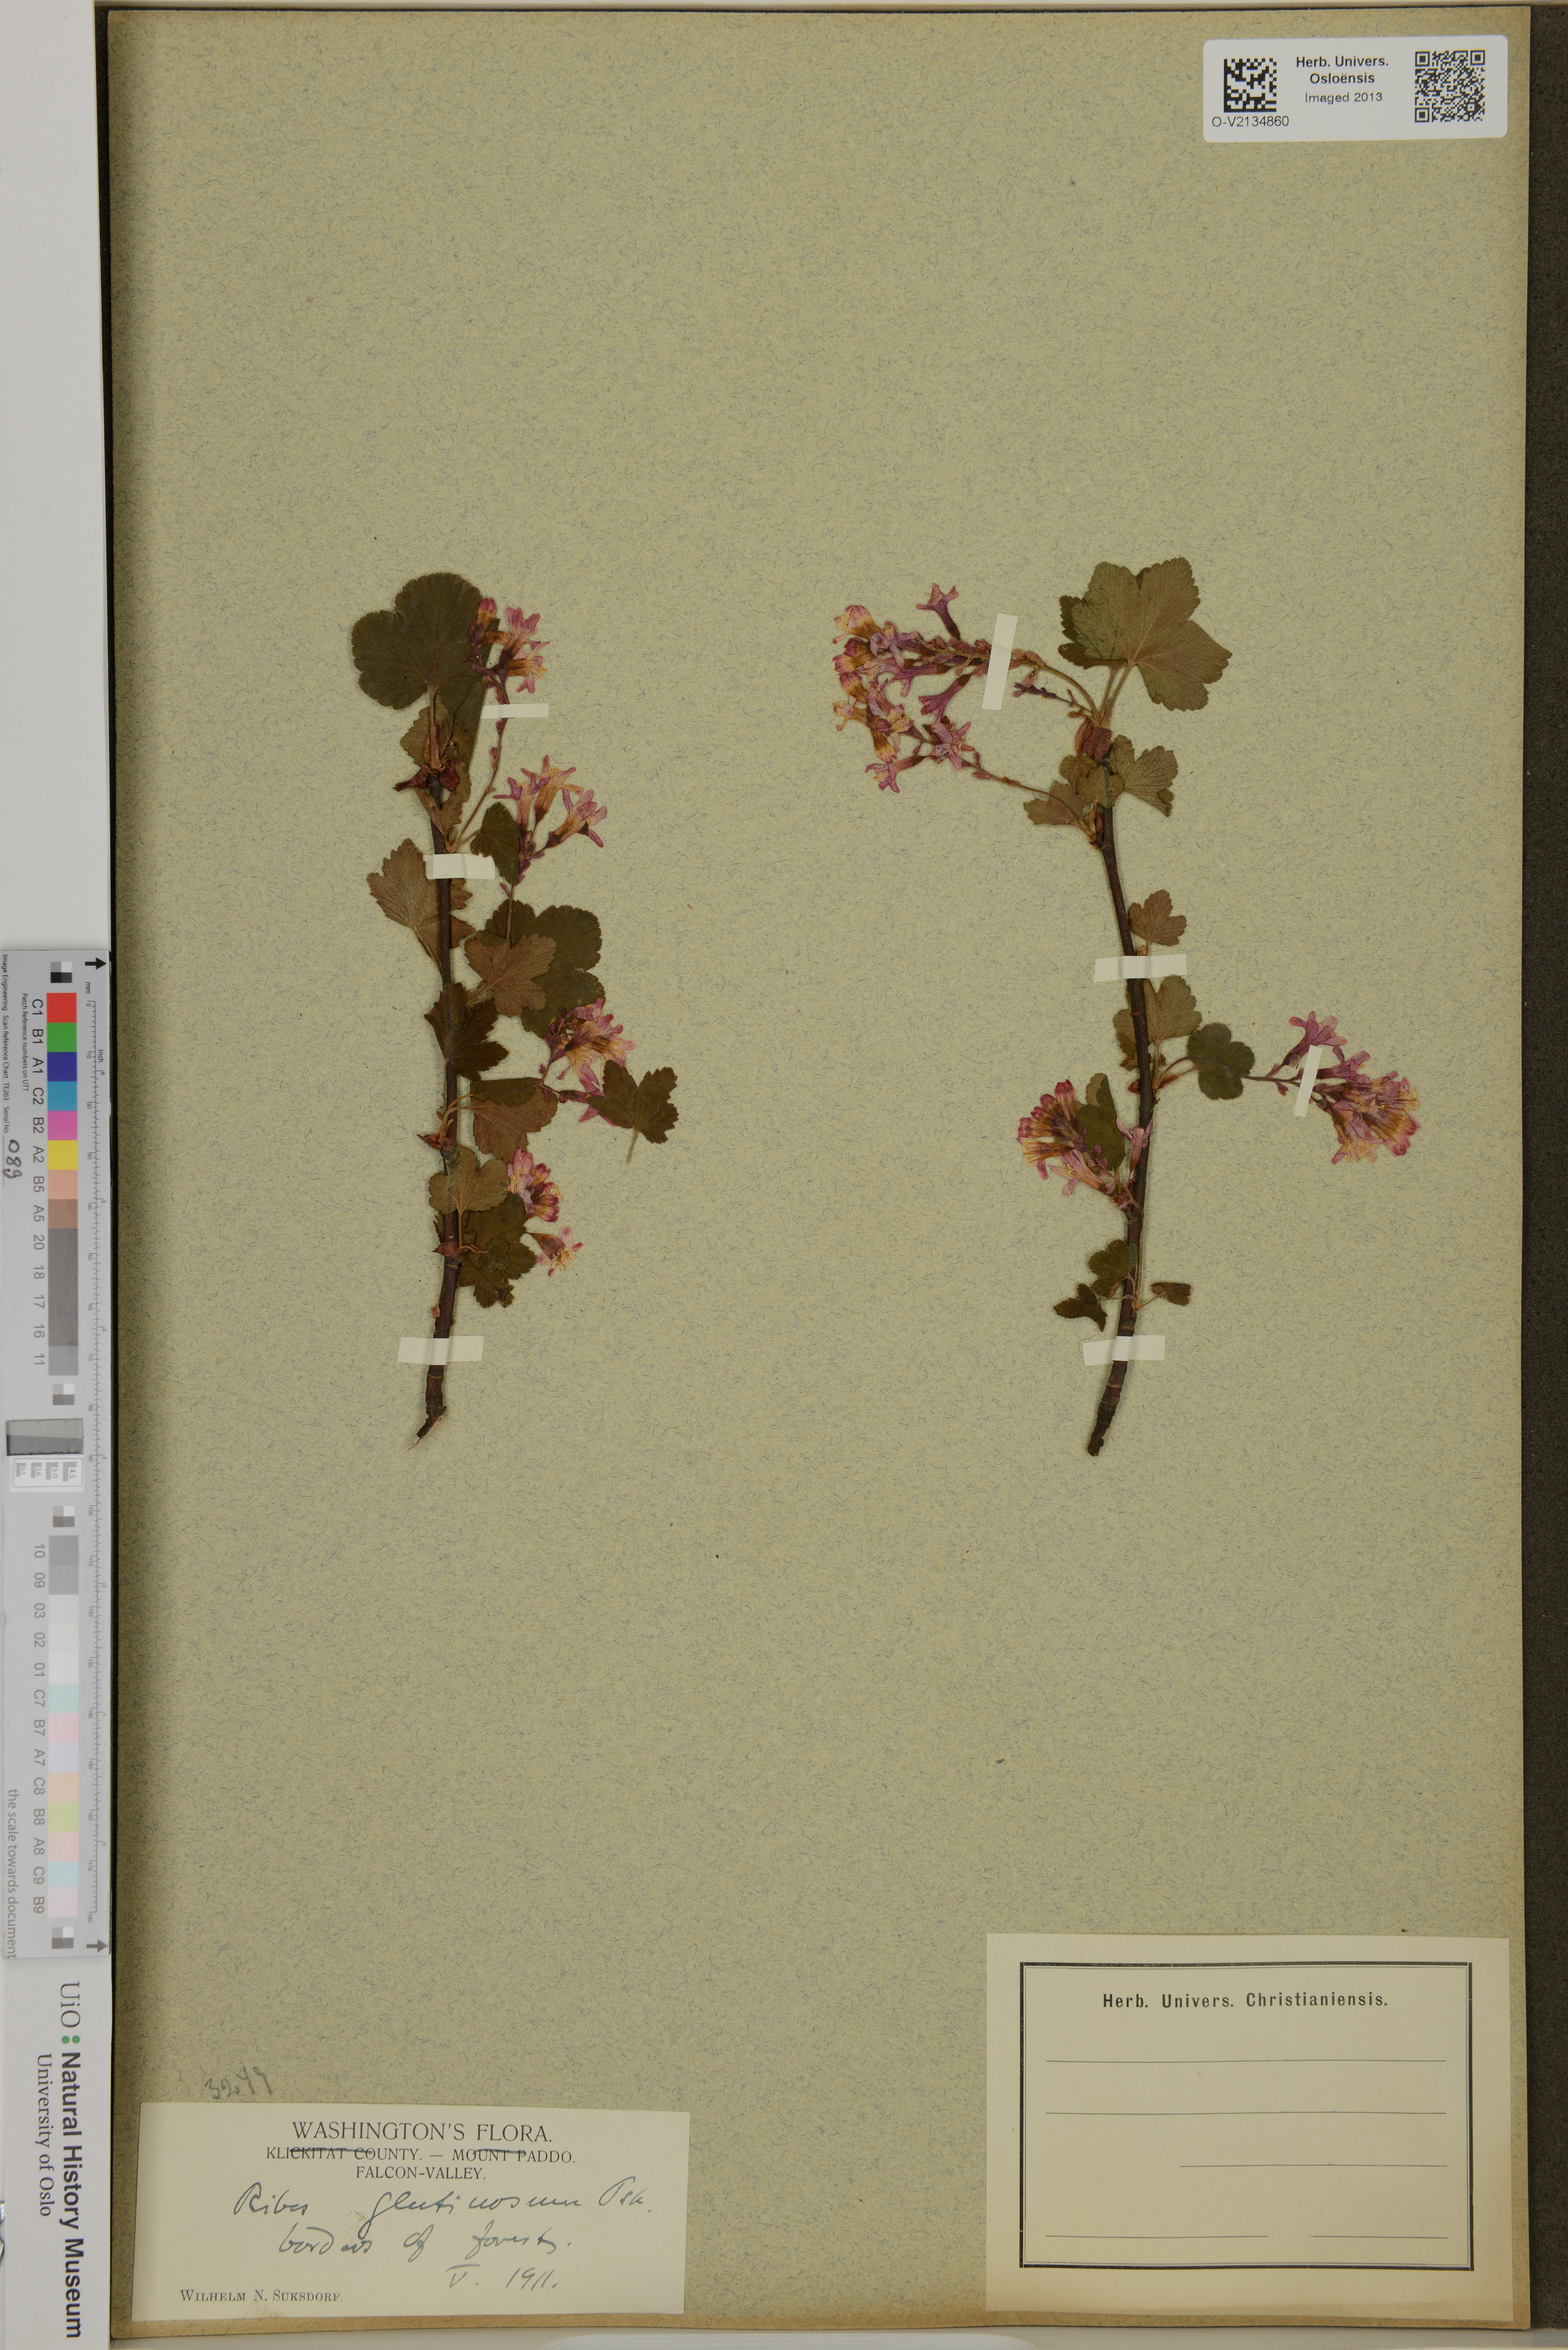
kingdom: Plantae
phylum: Tracheophyta
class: Magnoliopsida
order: Saxifragales
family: Grossulariaceae
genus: Ribes
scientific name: Ribes
